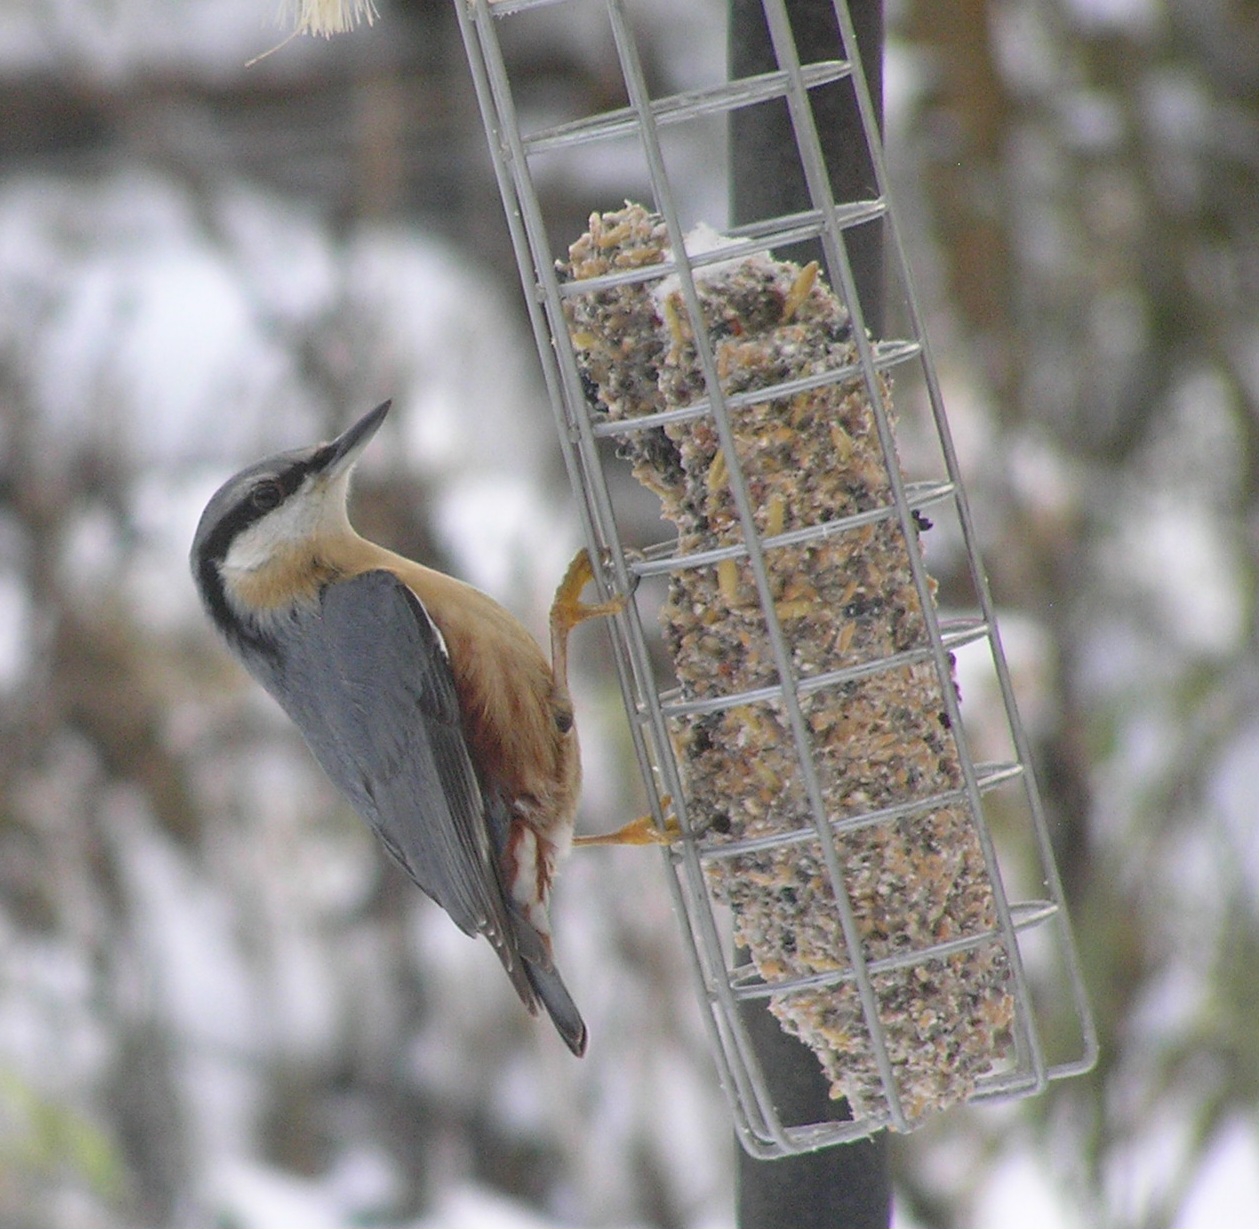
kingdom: Animalia
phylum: Chordata
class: Aves
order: Passeriformes
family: Sittidae
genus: Sitta
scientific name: Sitta europaea
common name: Spætmejse
